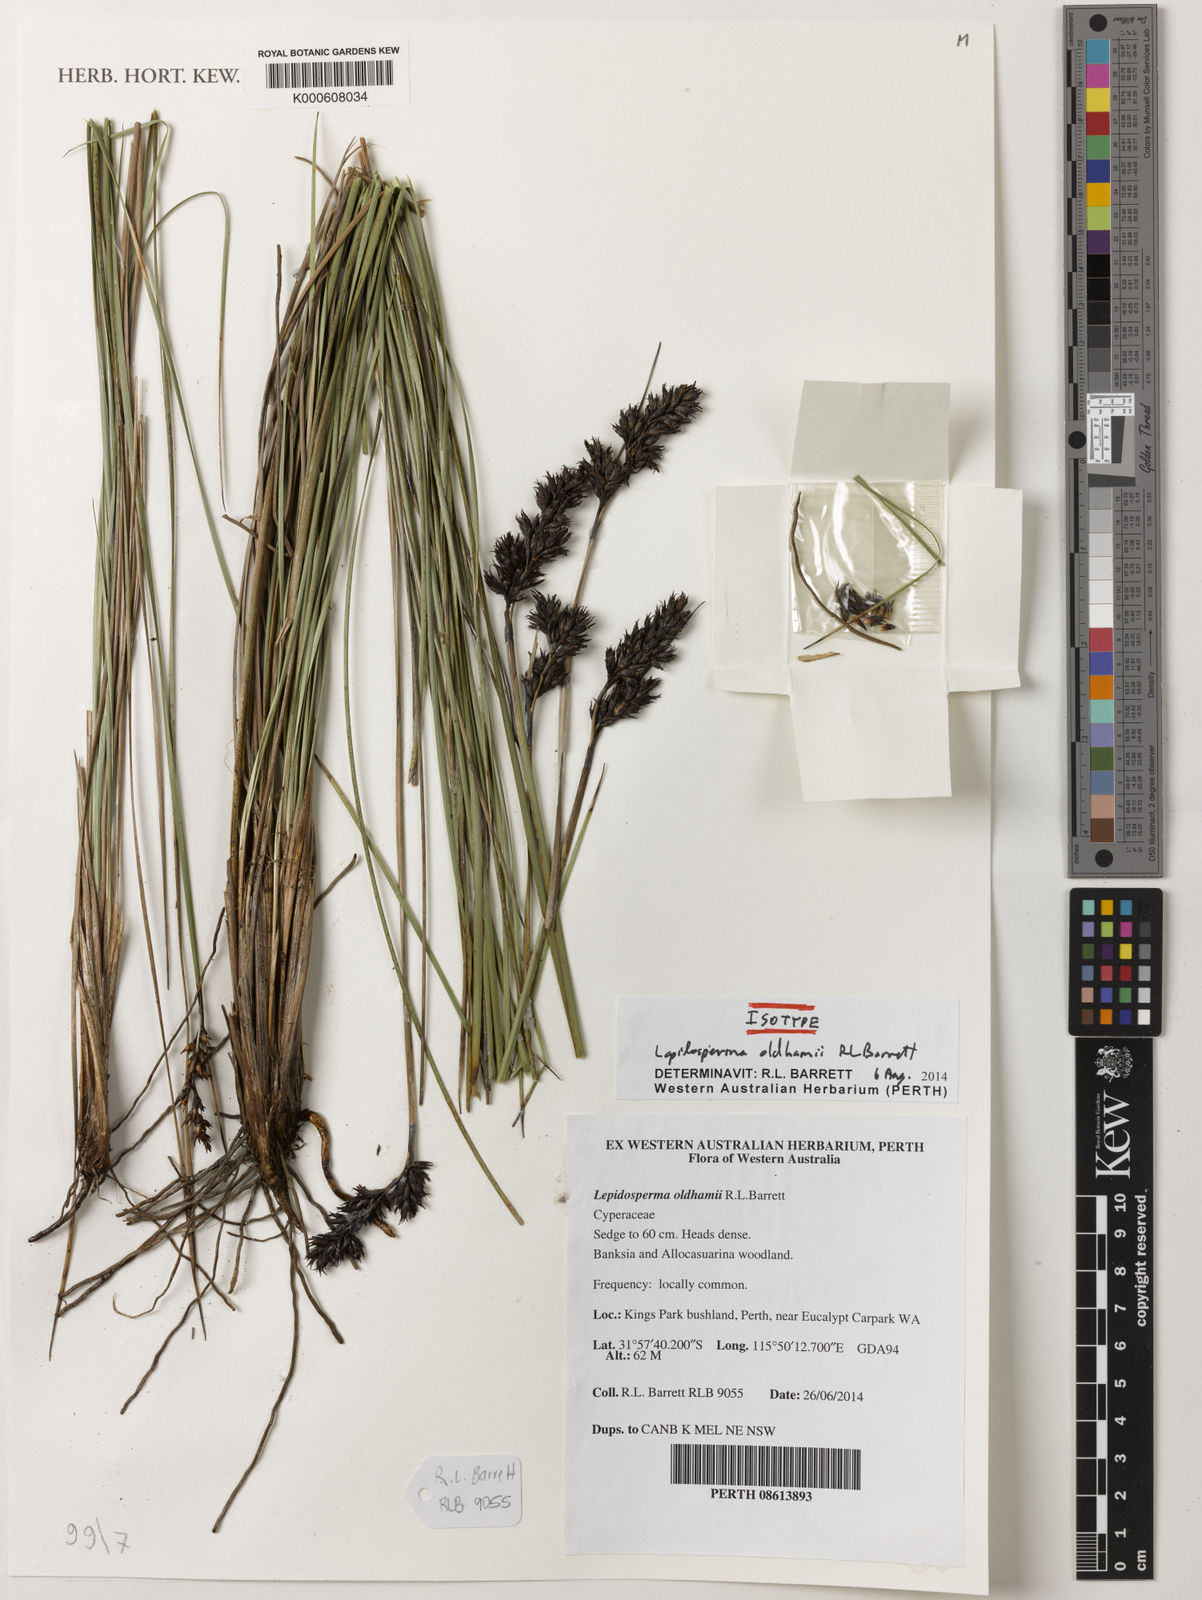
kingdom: Plantae
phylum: Tracheophyta
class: Liliopsida
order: Poales
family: Cyperaceae
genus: Lepidosperma
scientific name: Lepidosperma oldhamii
